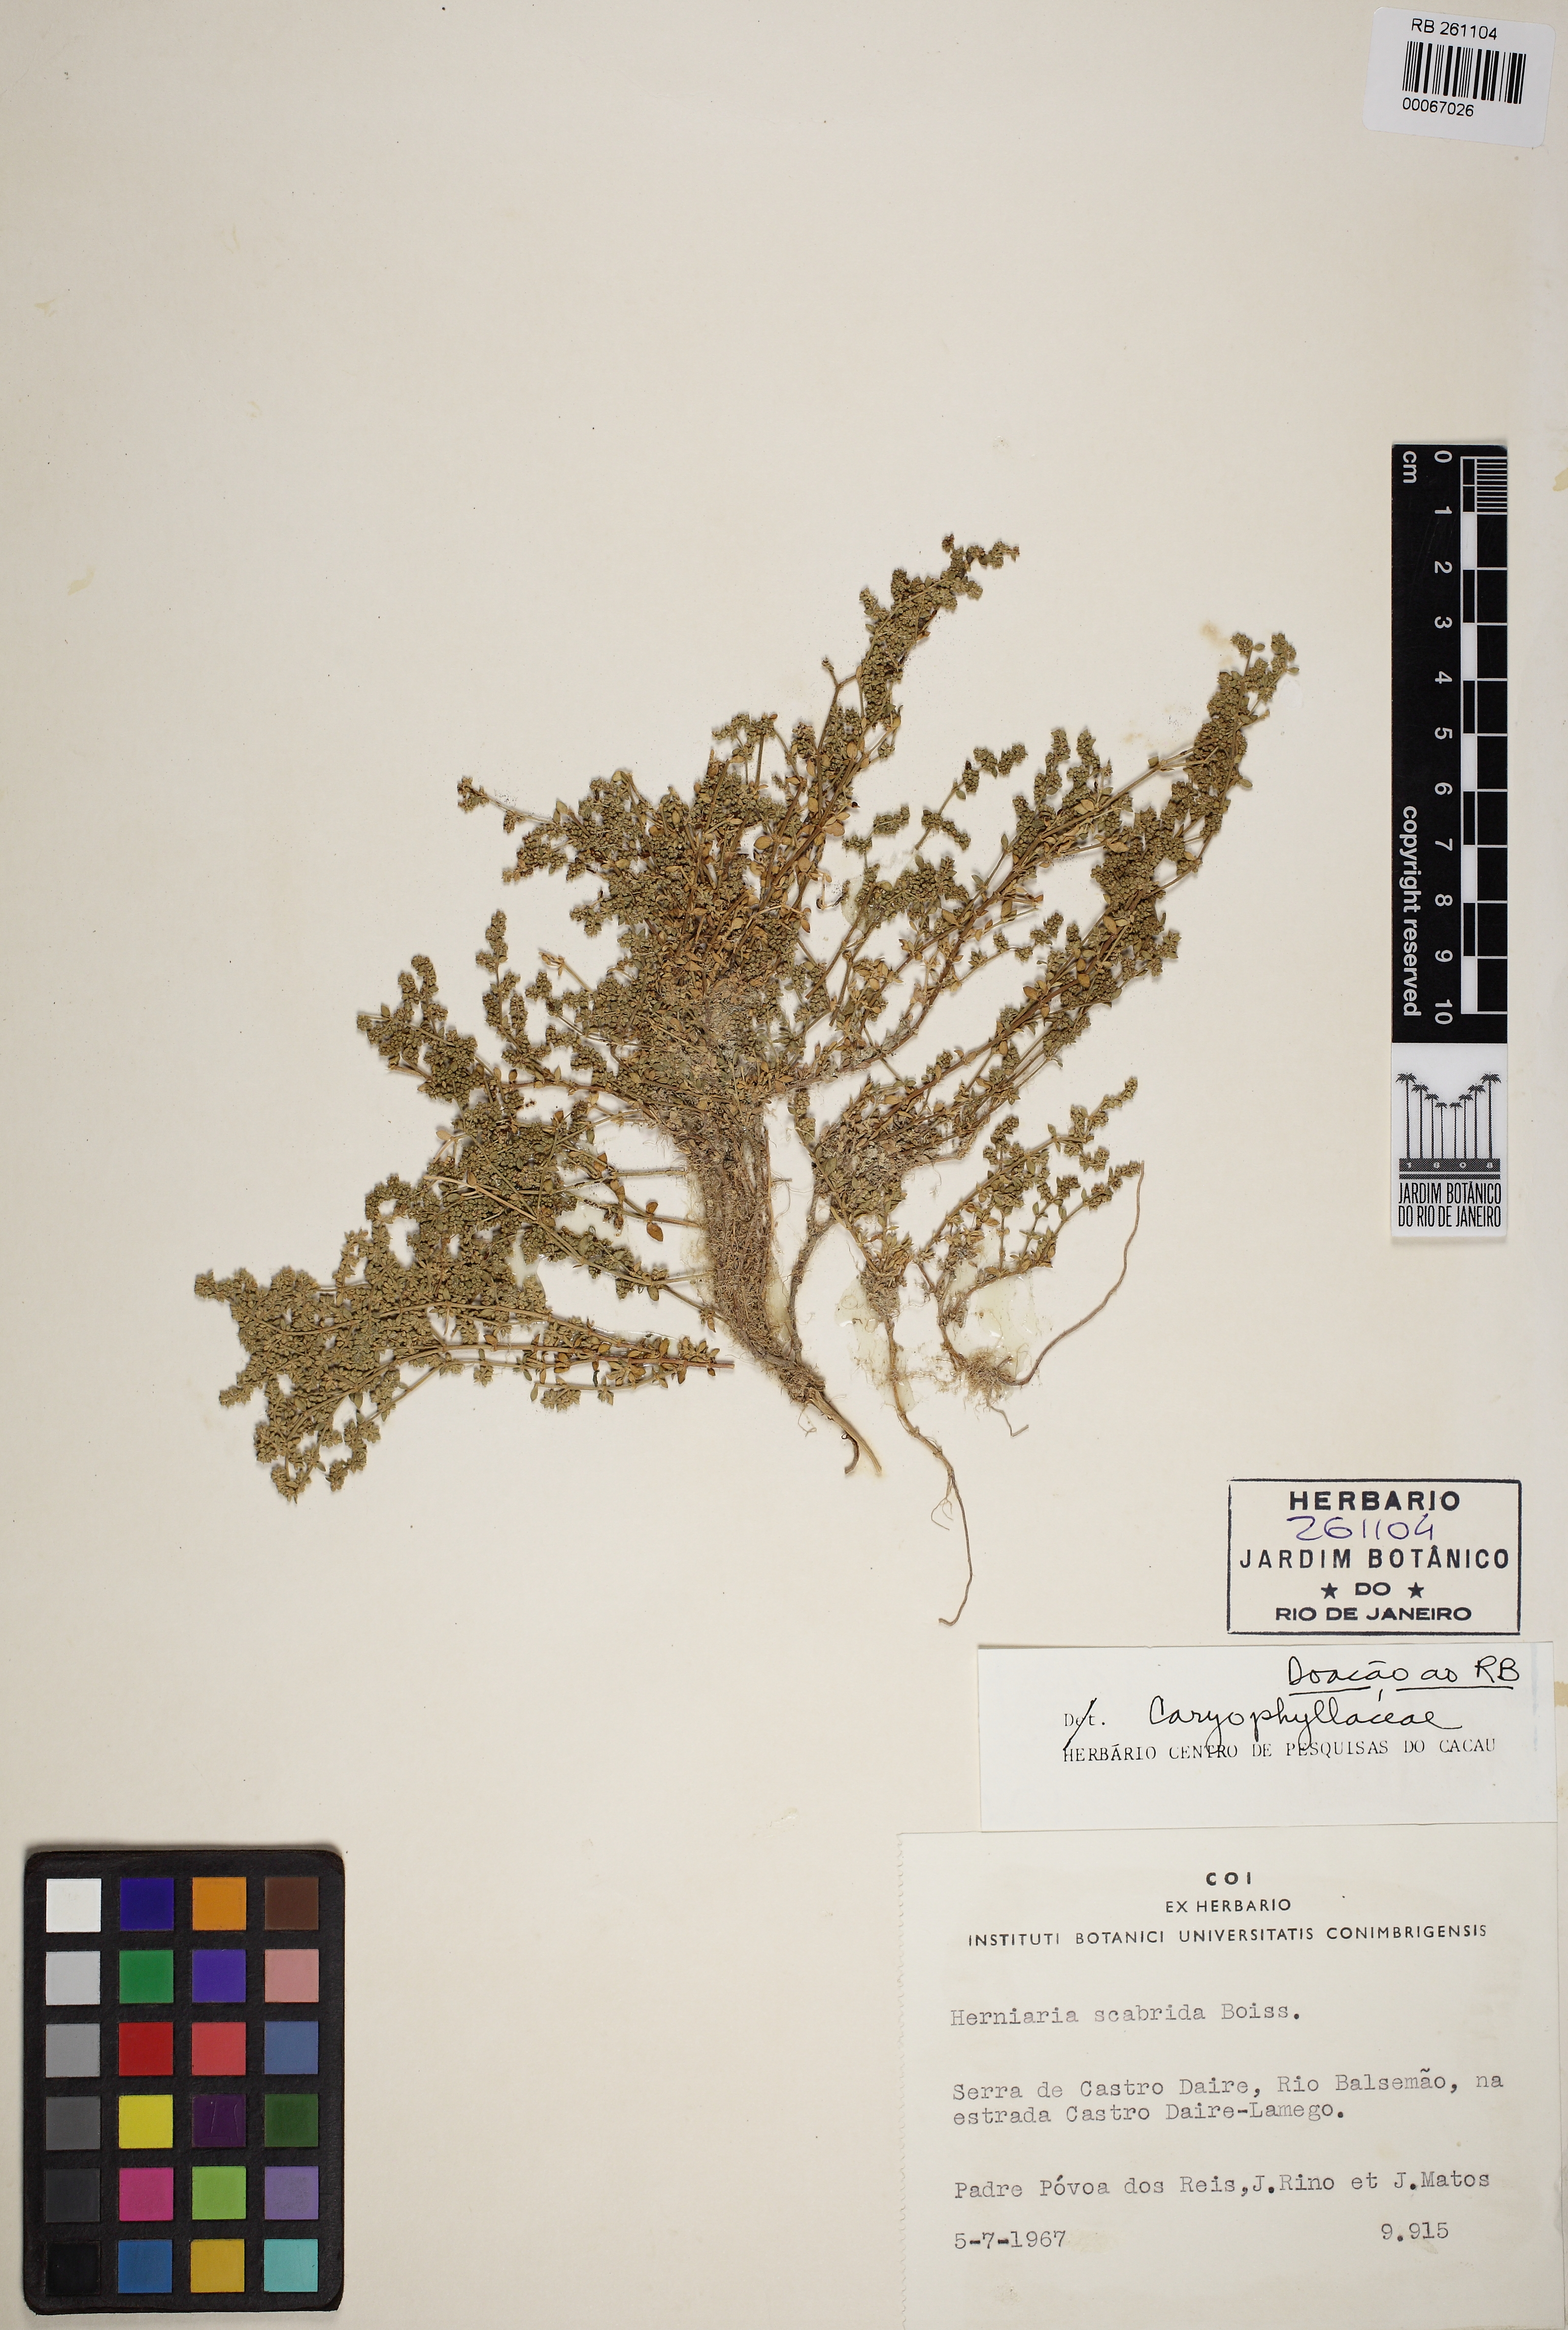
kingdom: Plantae
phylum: Tracheophyta
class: Magnoliopsida
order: Caryophyllales
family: Caryophyllaceae
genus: Herniaria
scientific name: Herniaria scabrida
